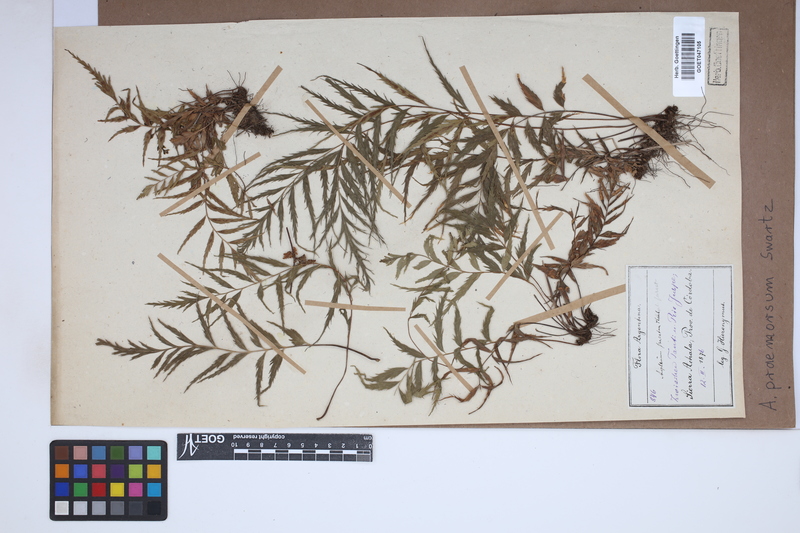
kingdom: Plantae
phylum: Tracheophyta
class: Polypodiopsida
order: Polypodiales
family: Aspleniaceae
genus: Asplenium
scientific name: Asplenium praemorsum
